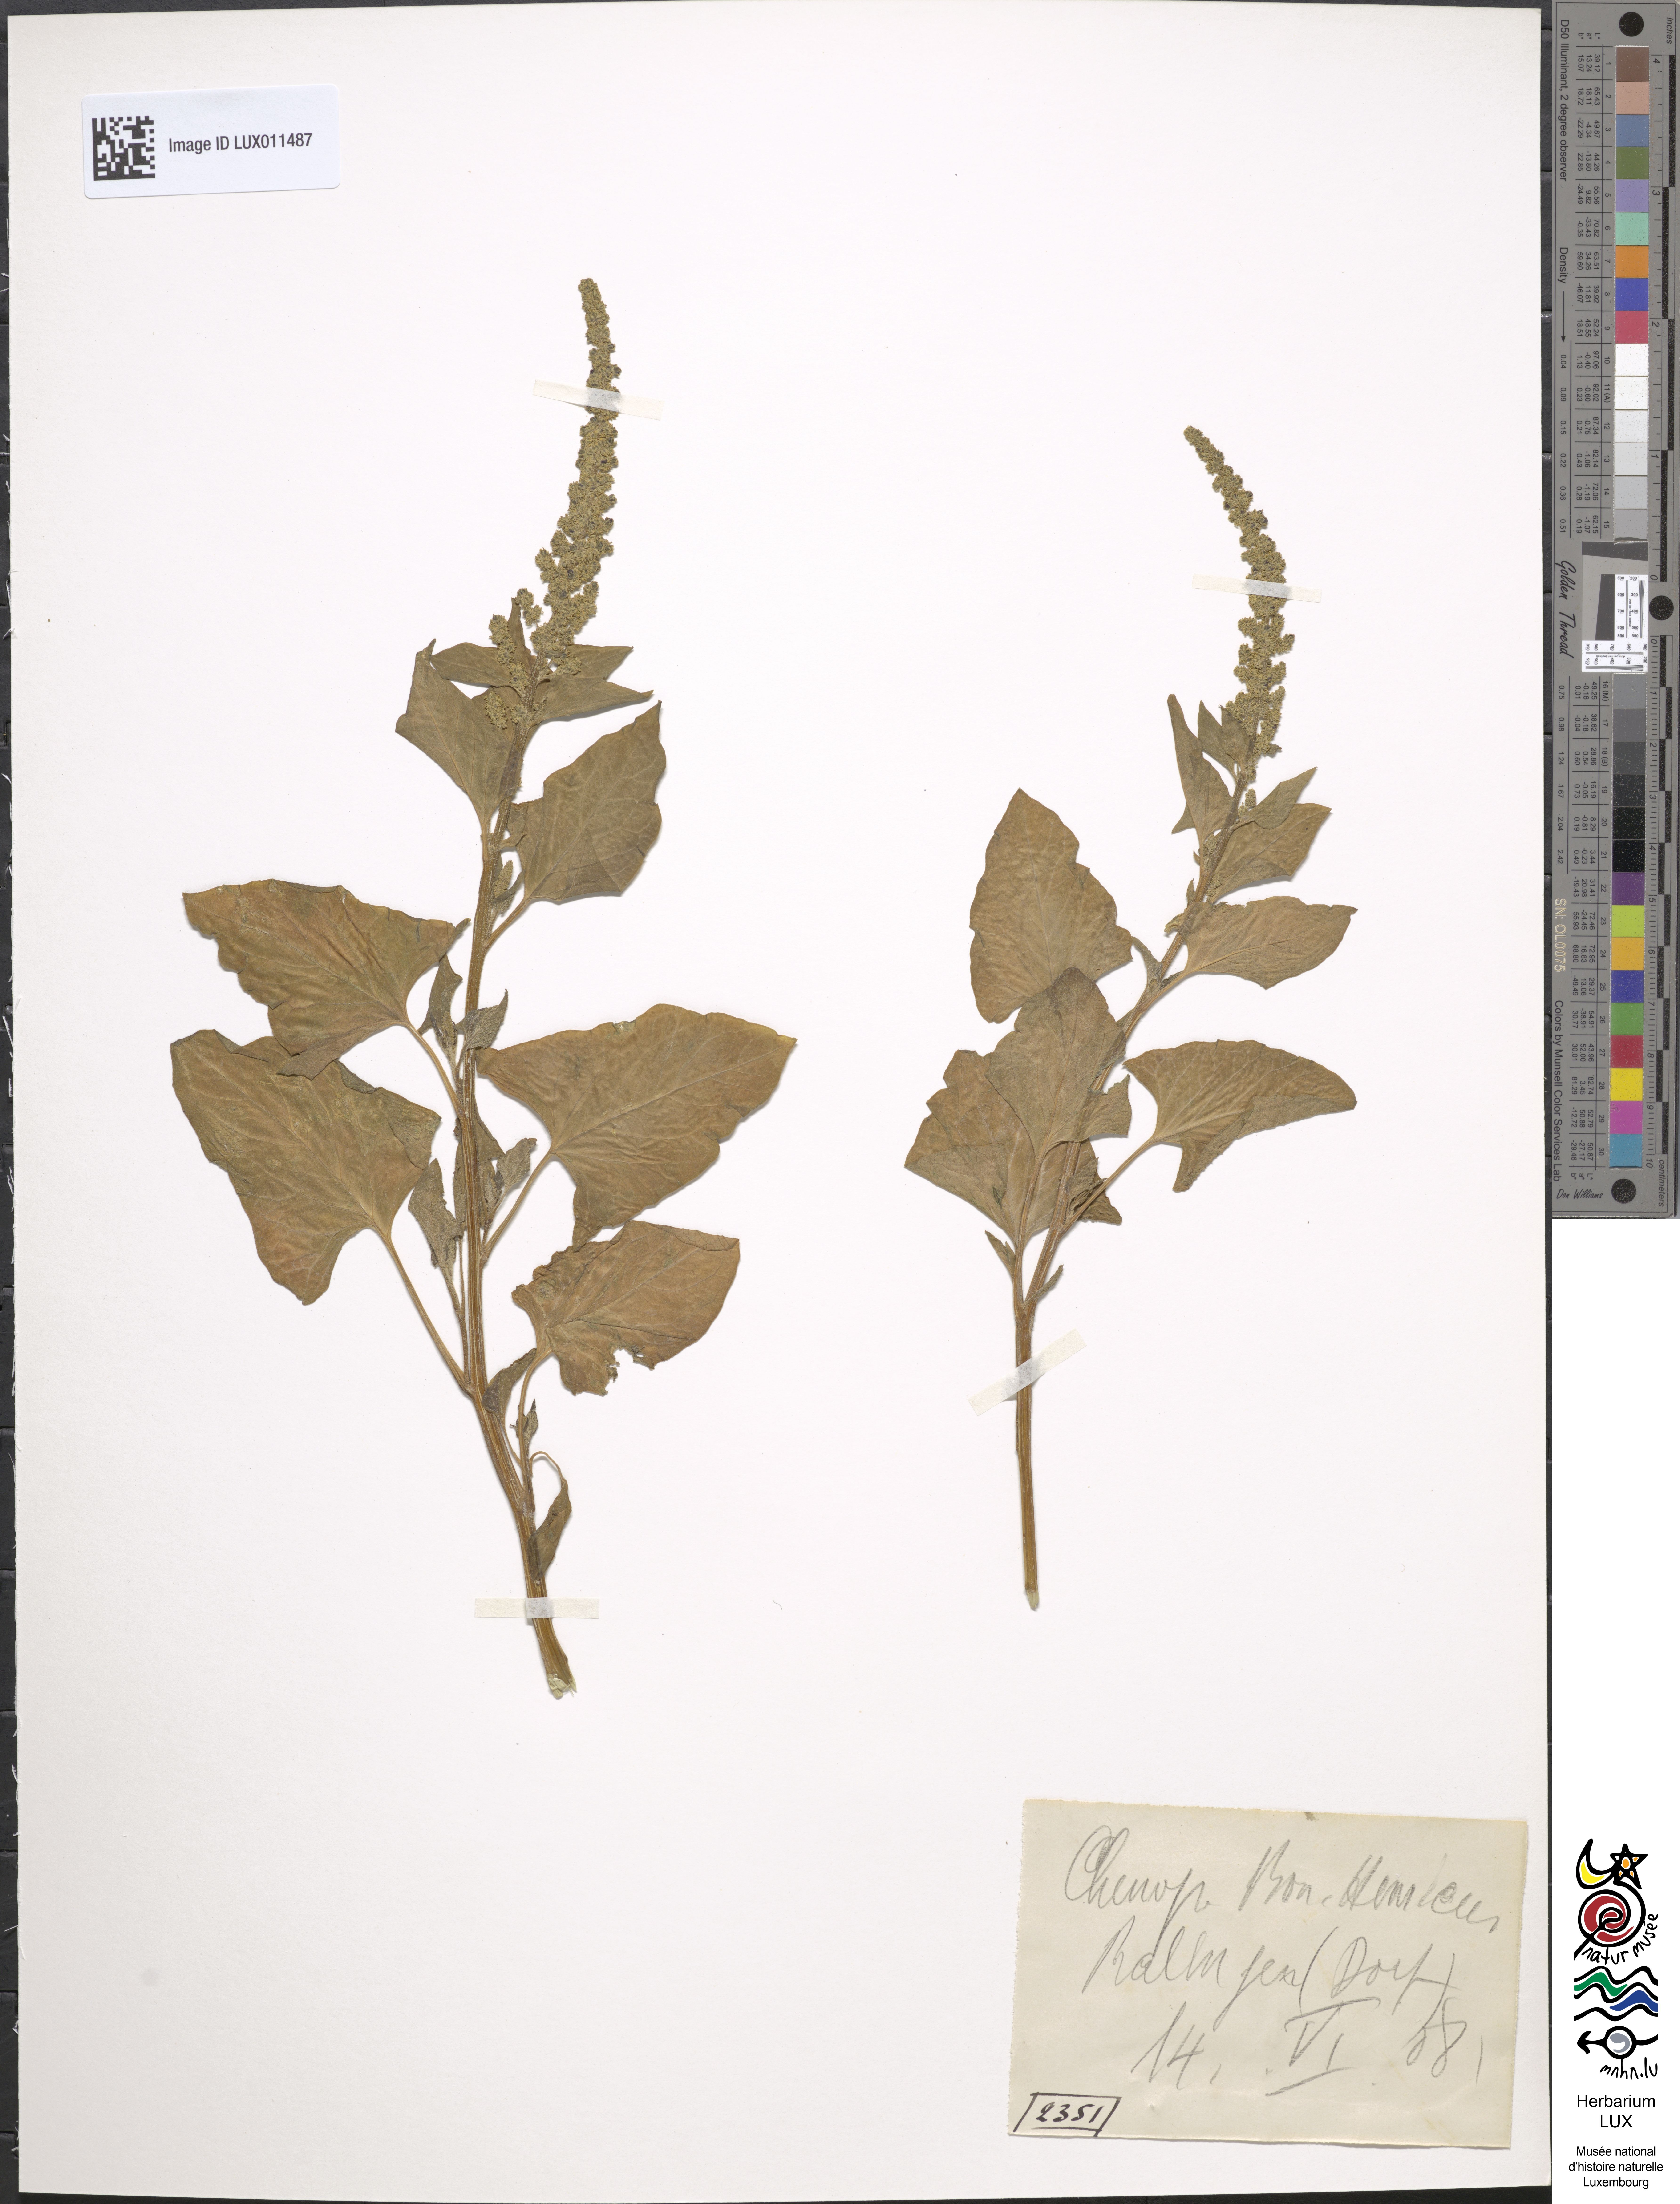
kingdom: Plantae
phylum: Tracheophyta
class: Magnoliopsida
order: Caryophyllales
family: Amaranthaceae
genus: Blitum
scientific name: Blitum bonus-henricus
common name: Good king henry
